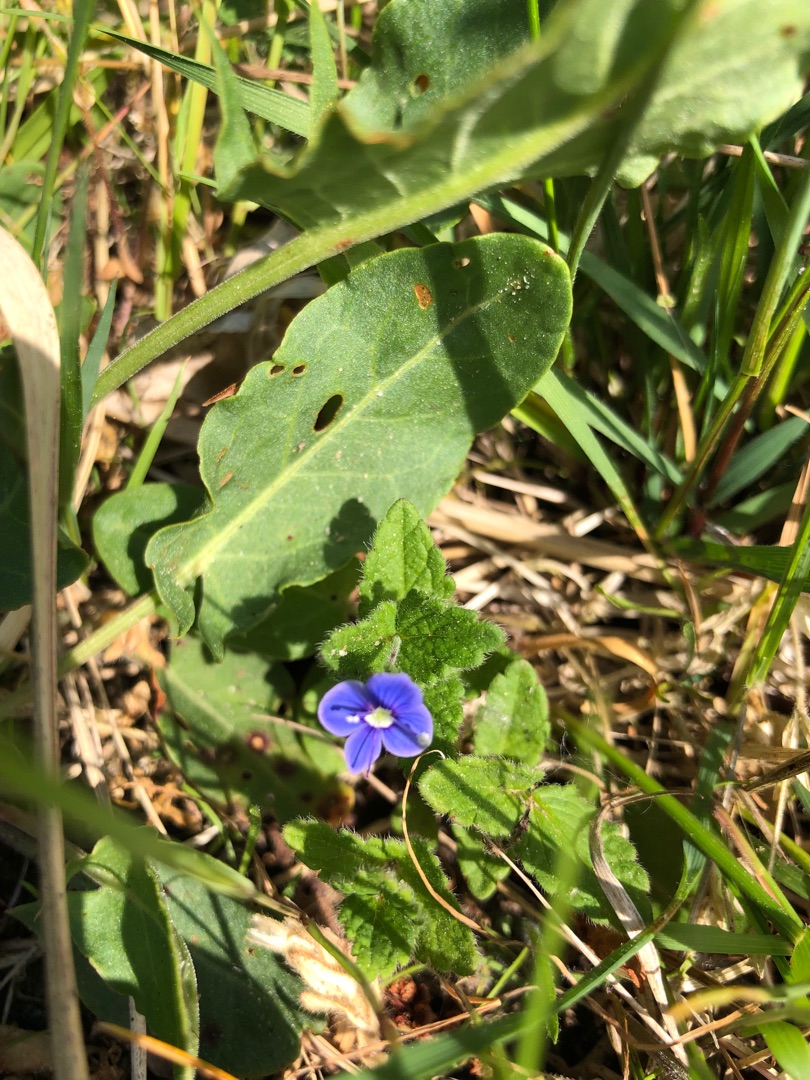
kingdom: Plantae
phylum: Tracheophyta
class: Magnoliopsida
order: Lamiales
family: Plantaginaceae
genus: Veronica
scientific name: Veronica chamaedrys
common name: Tveskægget ærenpris
